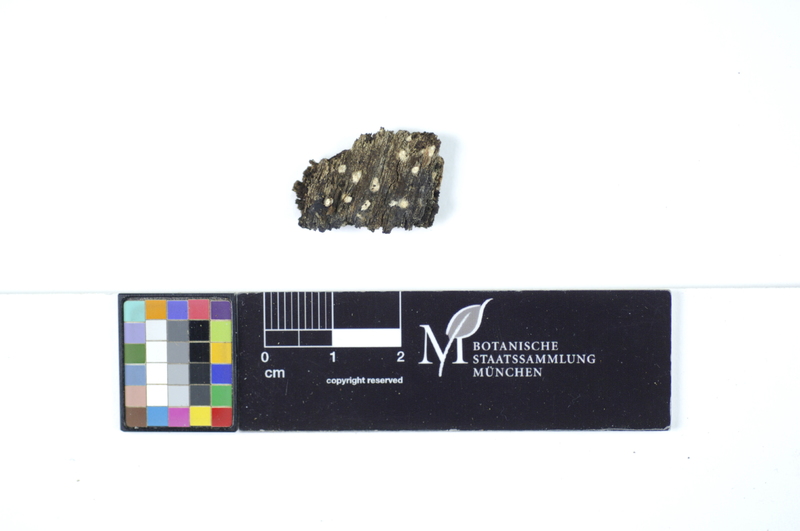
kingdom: Fungi
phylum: Basidiomycota
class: Agaricomycetes
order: Polyporales
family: Hyphodermataceae
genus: Mutatoderma
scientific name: Mutatoderma populneum
